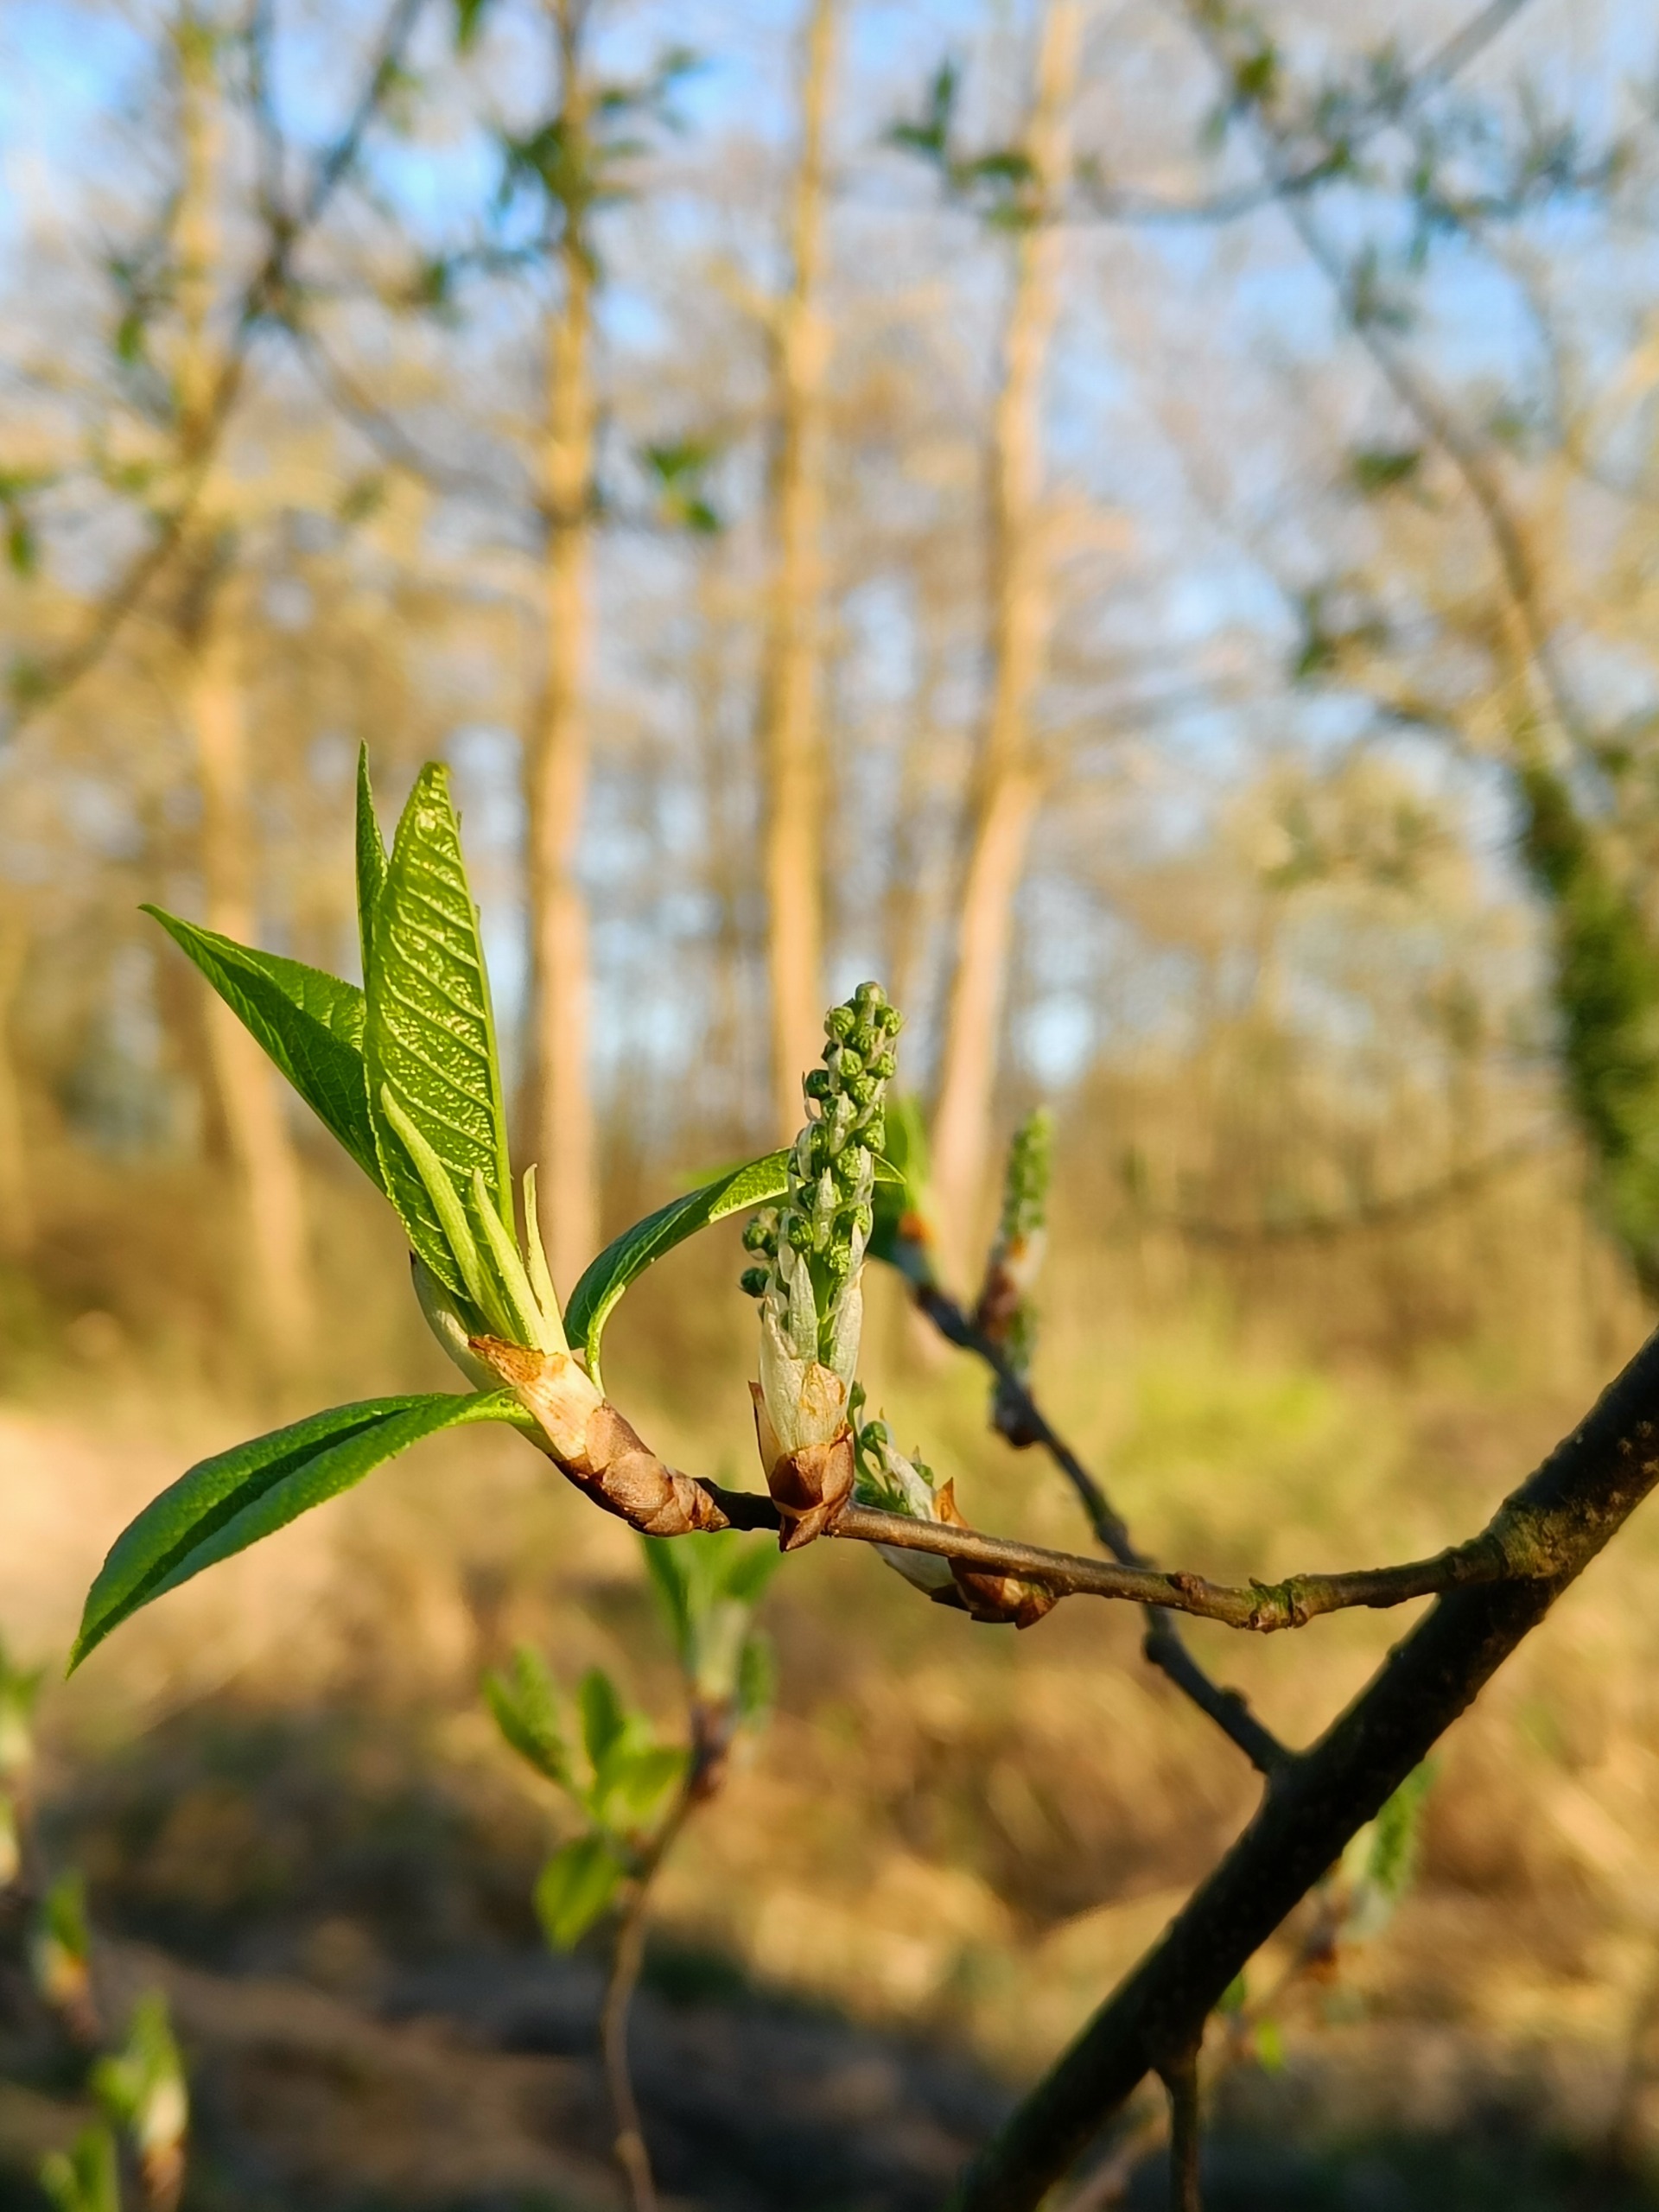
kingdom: Plantae
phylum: Tracheophyta
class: Magnoliopsida
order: Rosales
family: Rosaceae
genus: Prunus
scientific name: Prunus padus
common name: Almindelig hæg
